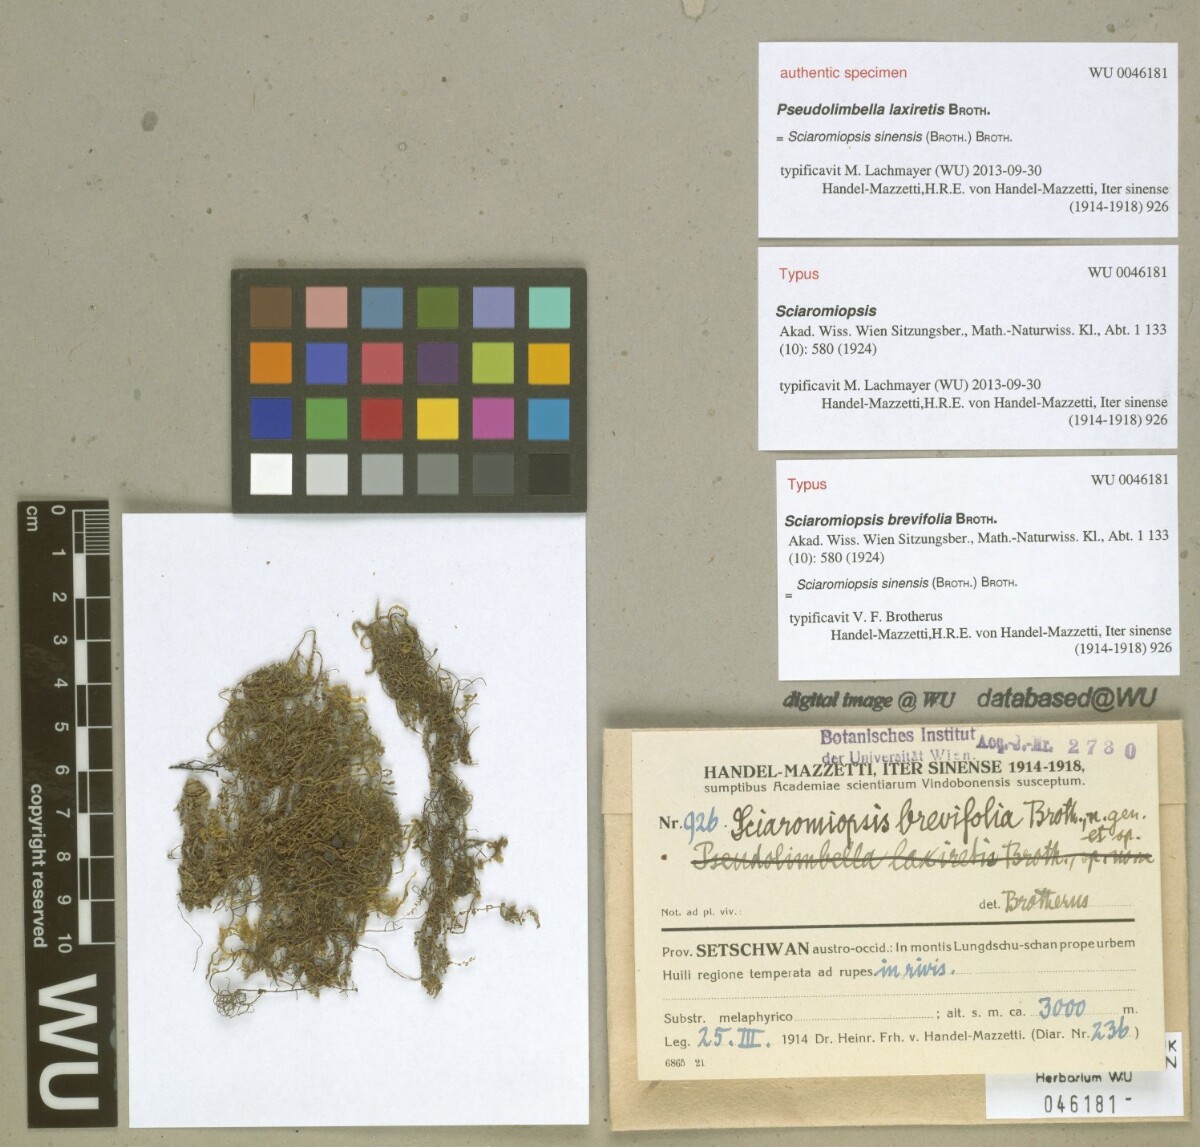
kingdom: Plantae
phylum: Bryophyta
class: Bryopsida
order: Hypnales
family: Brachytheciaceae
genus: Brachythecium
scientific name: Brachythecium sinense
